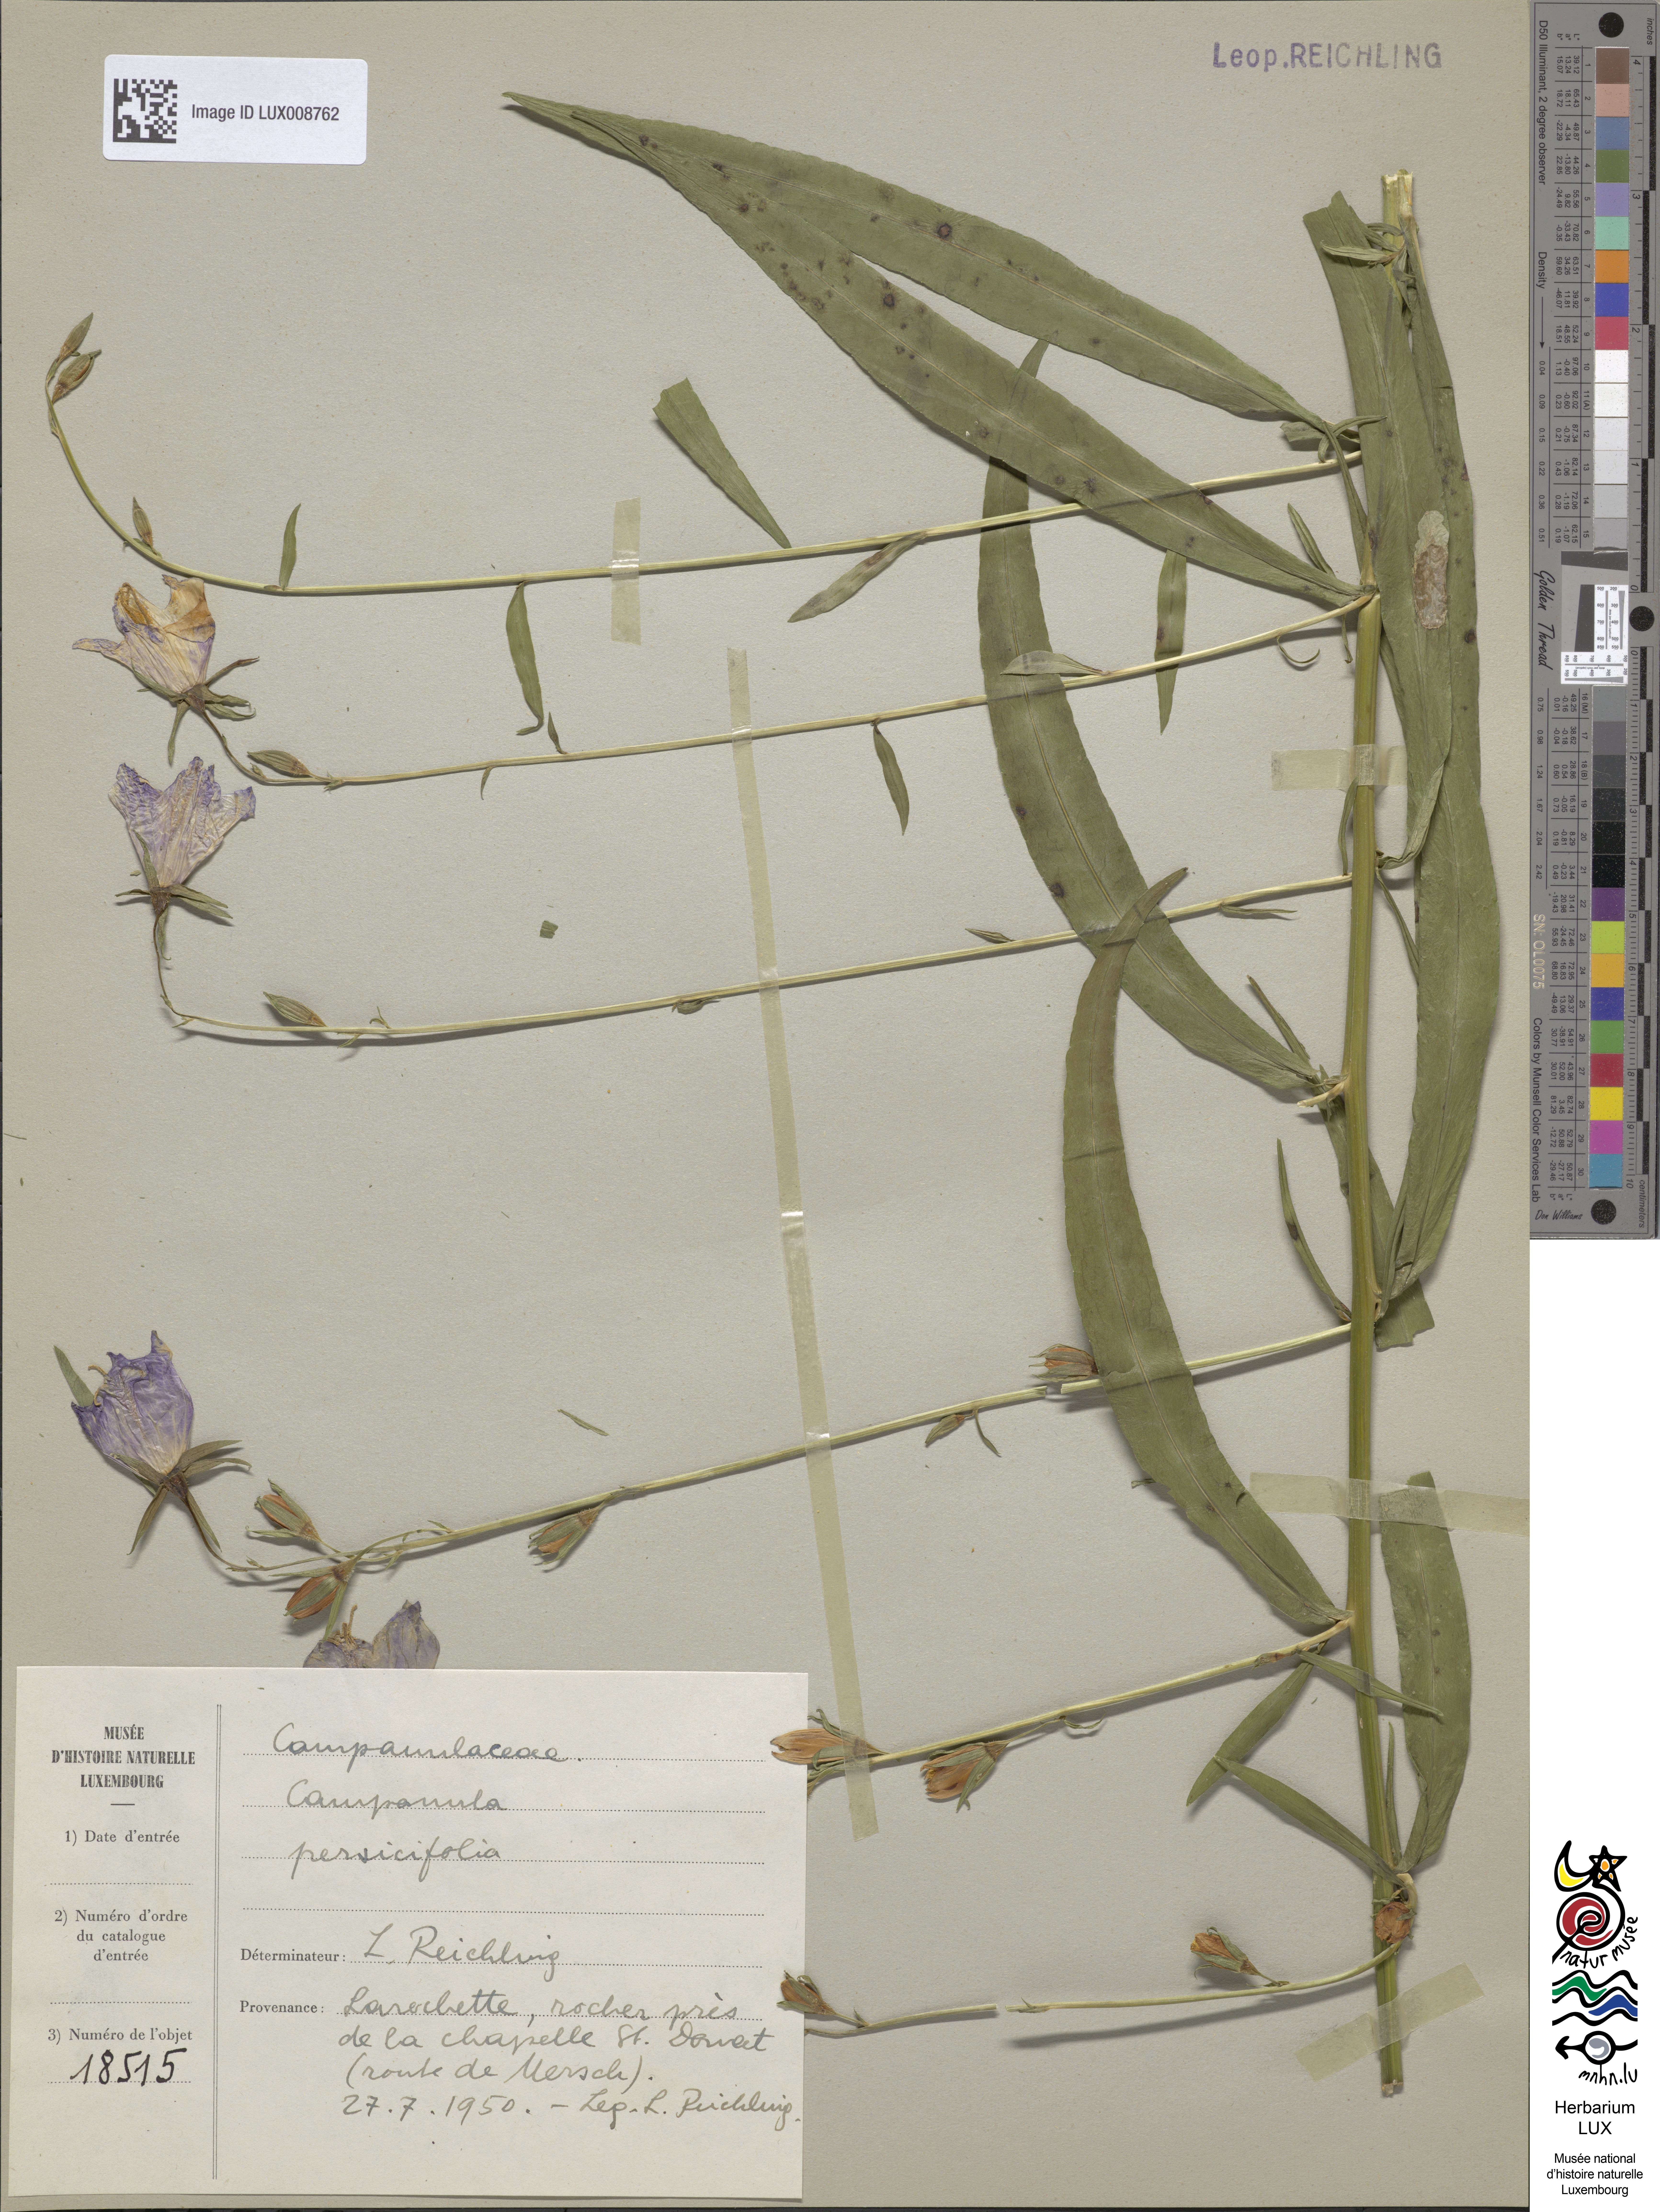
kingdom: Plantae
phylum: Tracheophyta
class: Magnoliopsida
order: Asterales
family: Campanulaceae
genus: Campanula
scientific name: Campanula persicifolia
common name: Peach-leaved bellflower
